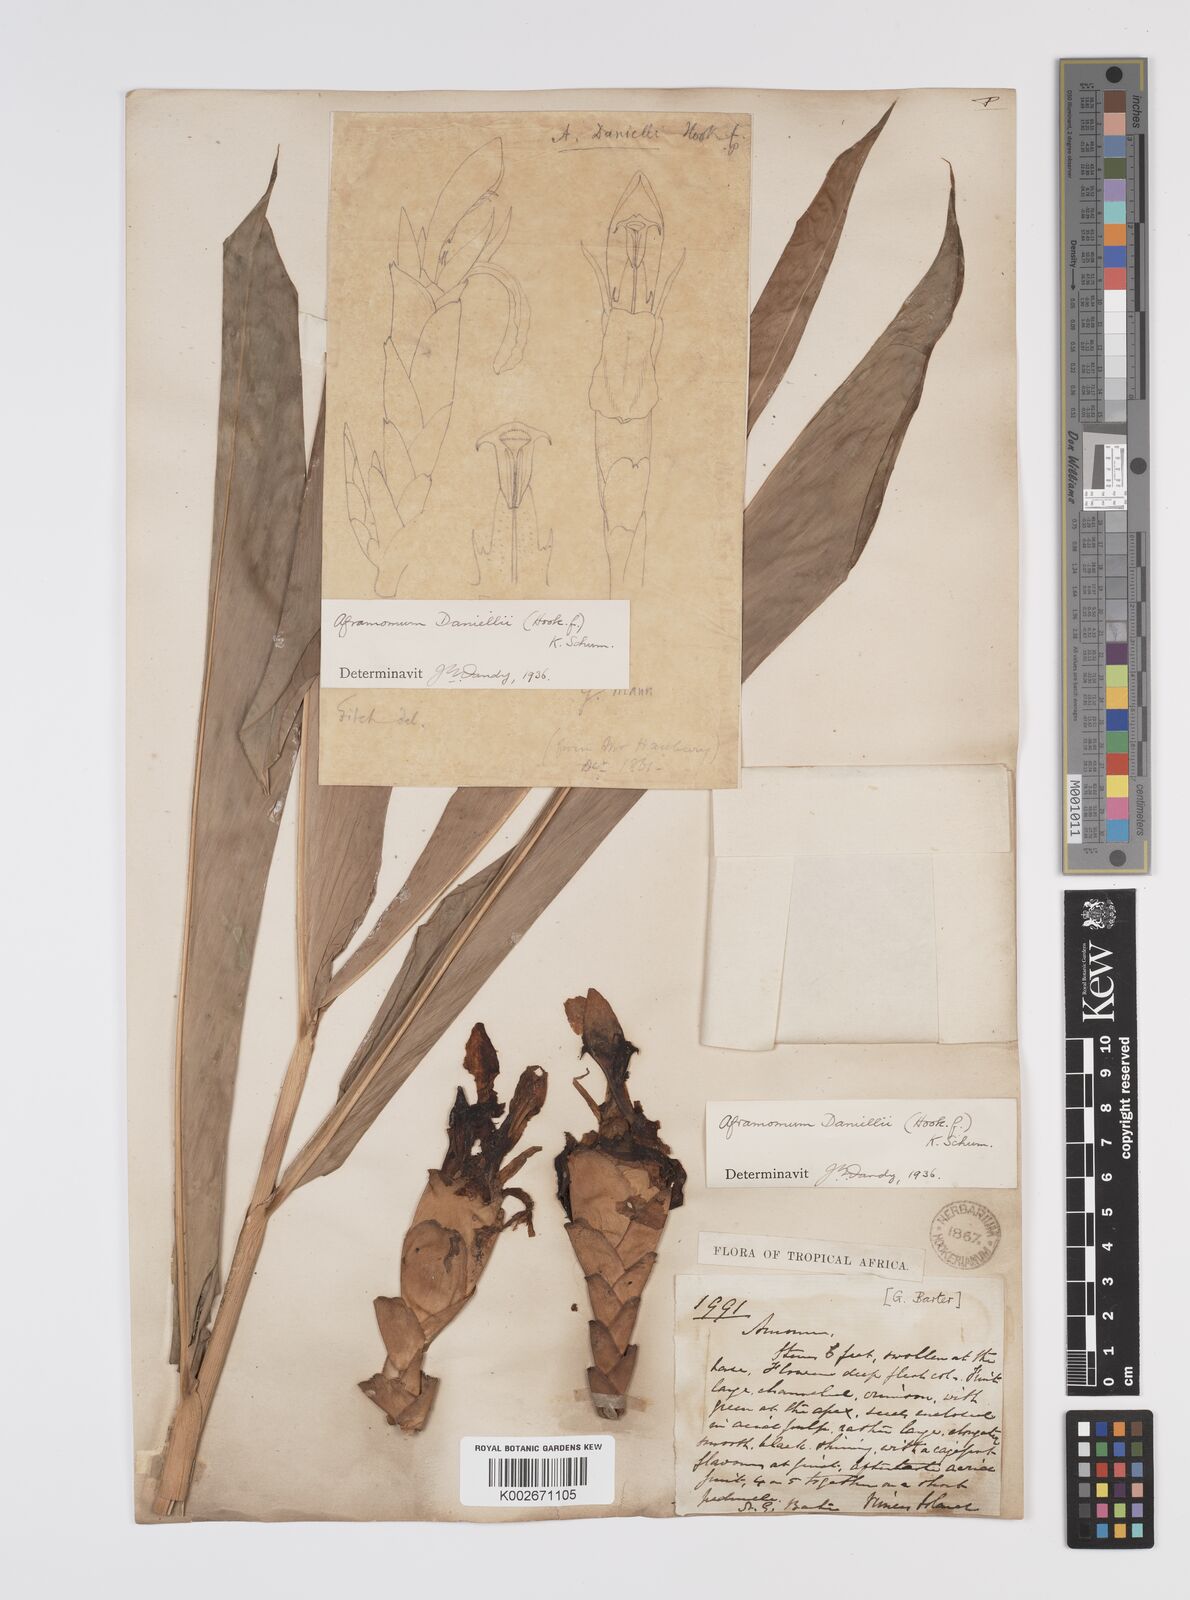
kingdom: Plantae
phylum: Tracheophyta
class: Liliopsida
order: Zingiberales
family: Zingiberaceae
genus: Aframomum
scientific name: Aframomum daniellii
